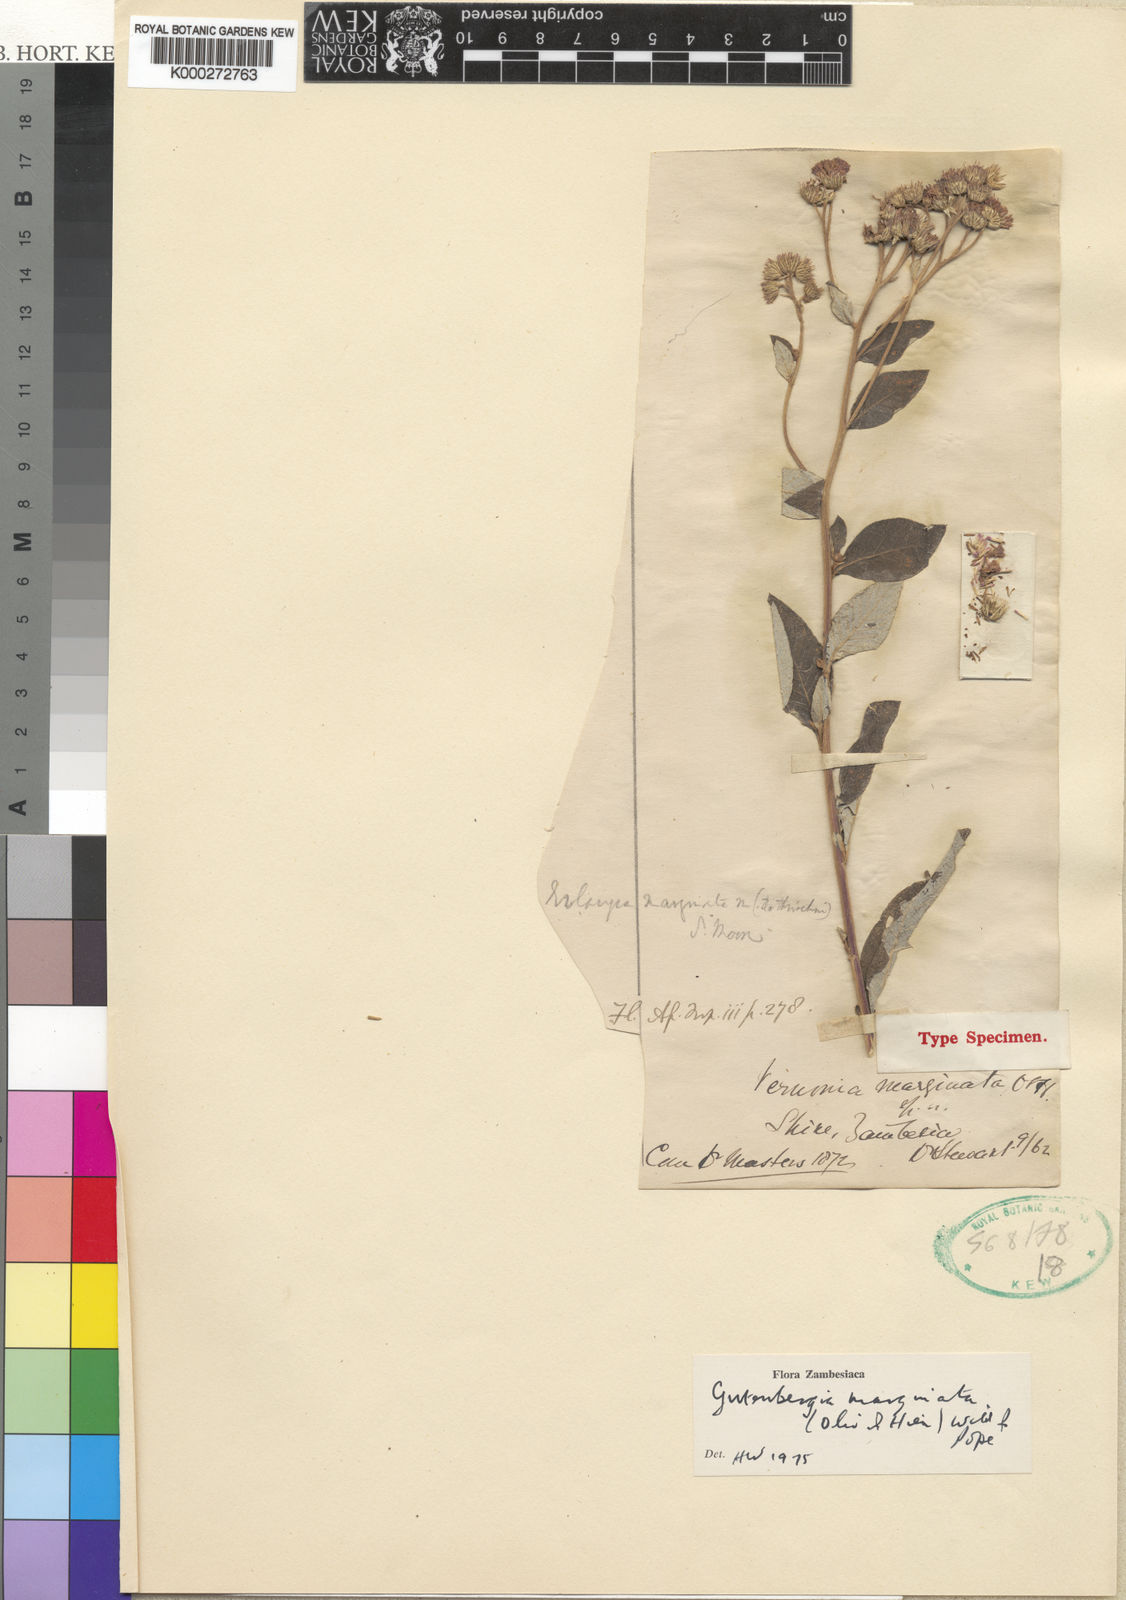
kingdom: Plantae
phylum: Tracheophyta
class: Magnoliopsida
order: Asterales
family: Asteraceae
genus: Gutenbergia
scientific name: Gutenbergia cordifolia
